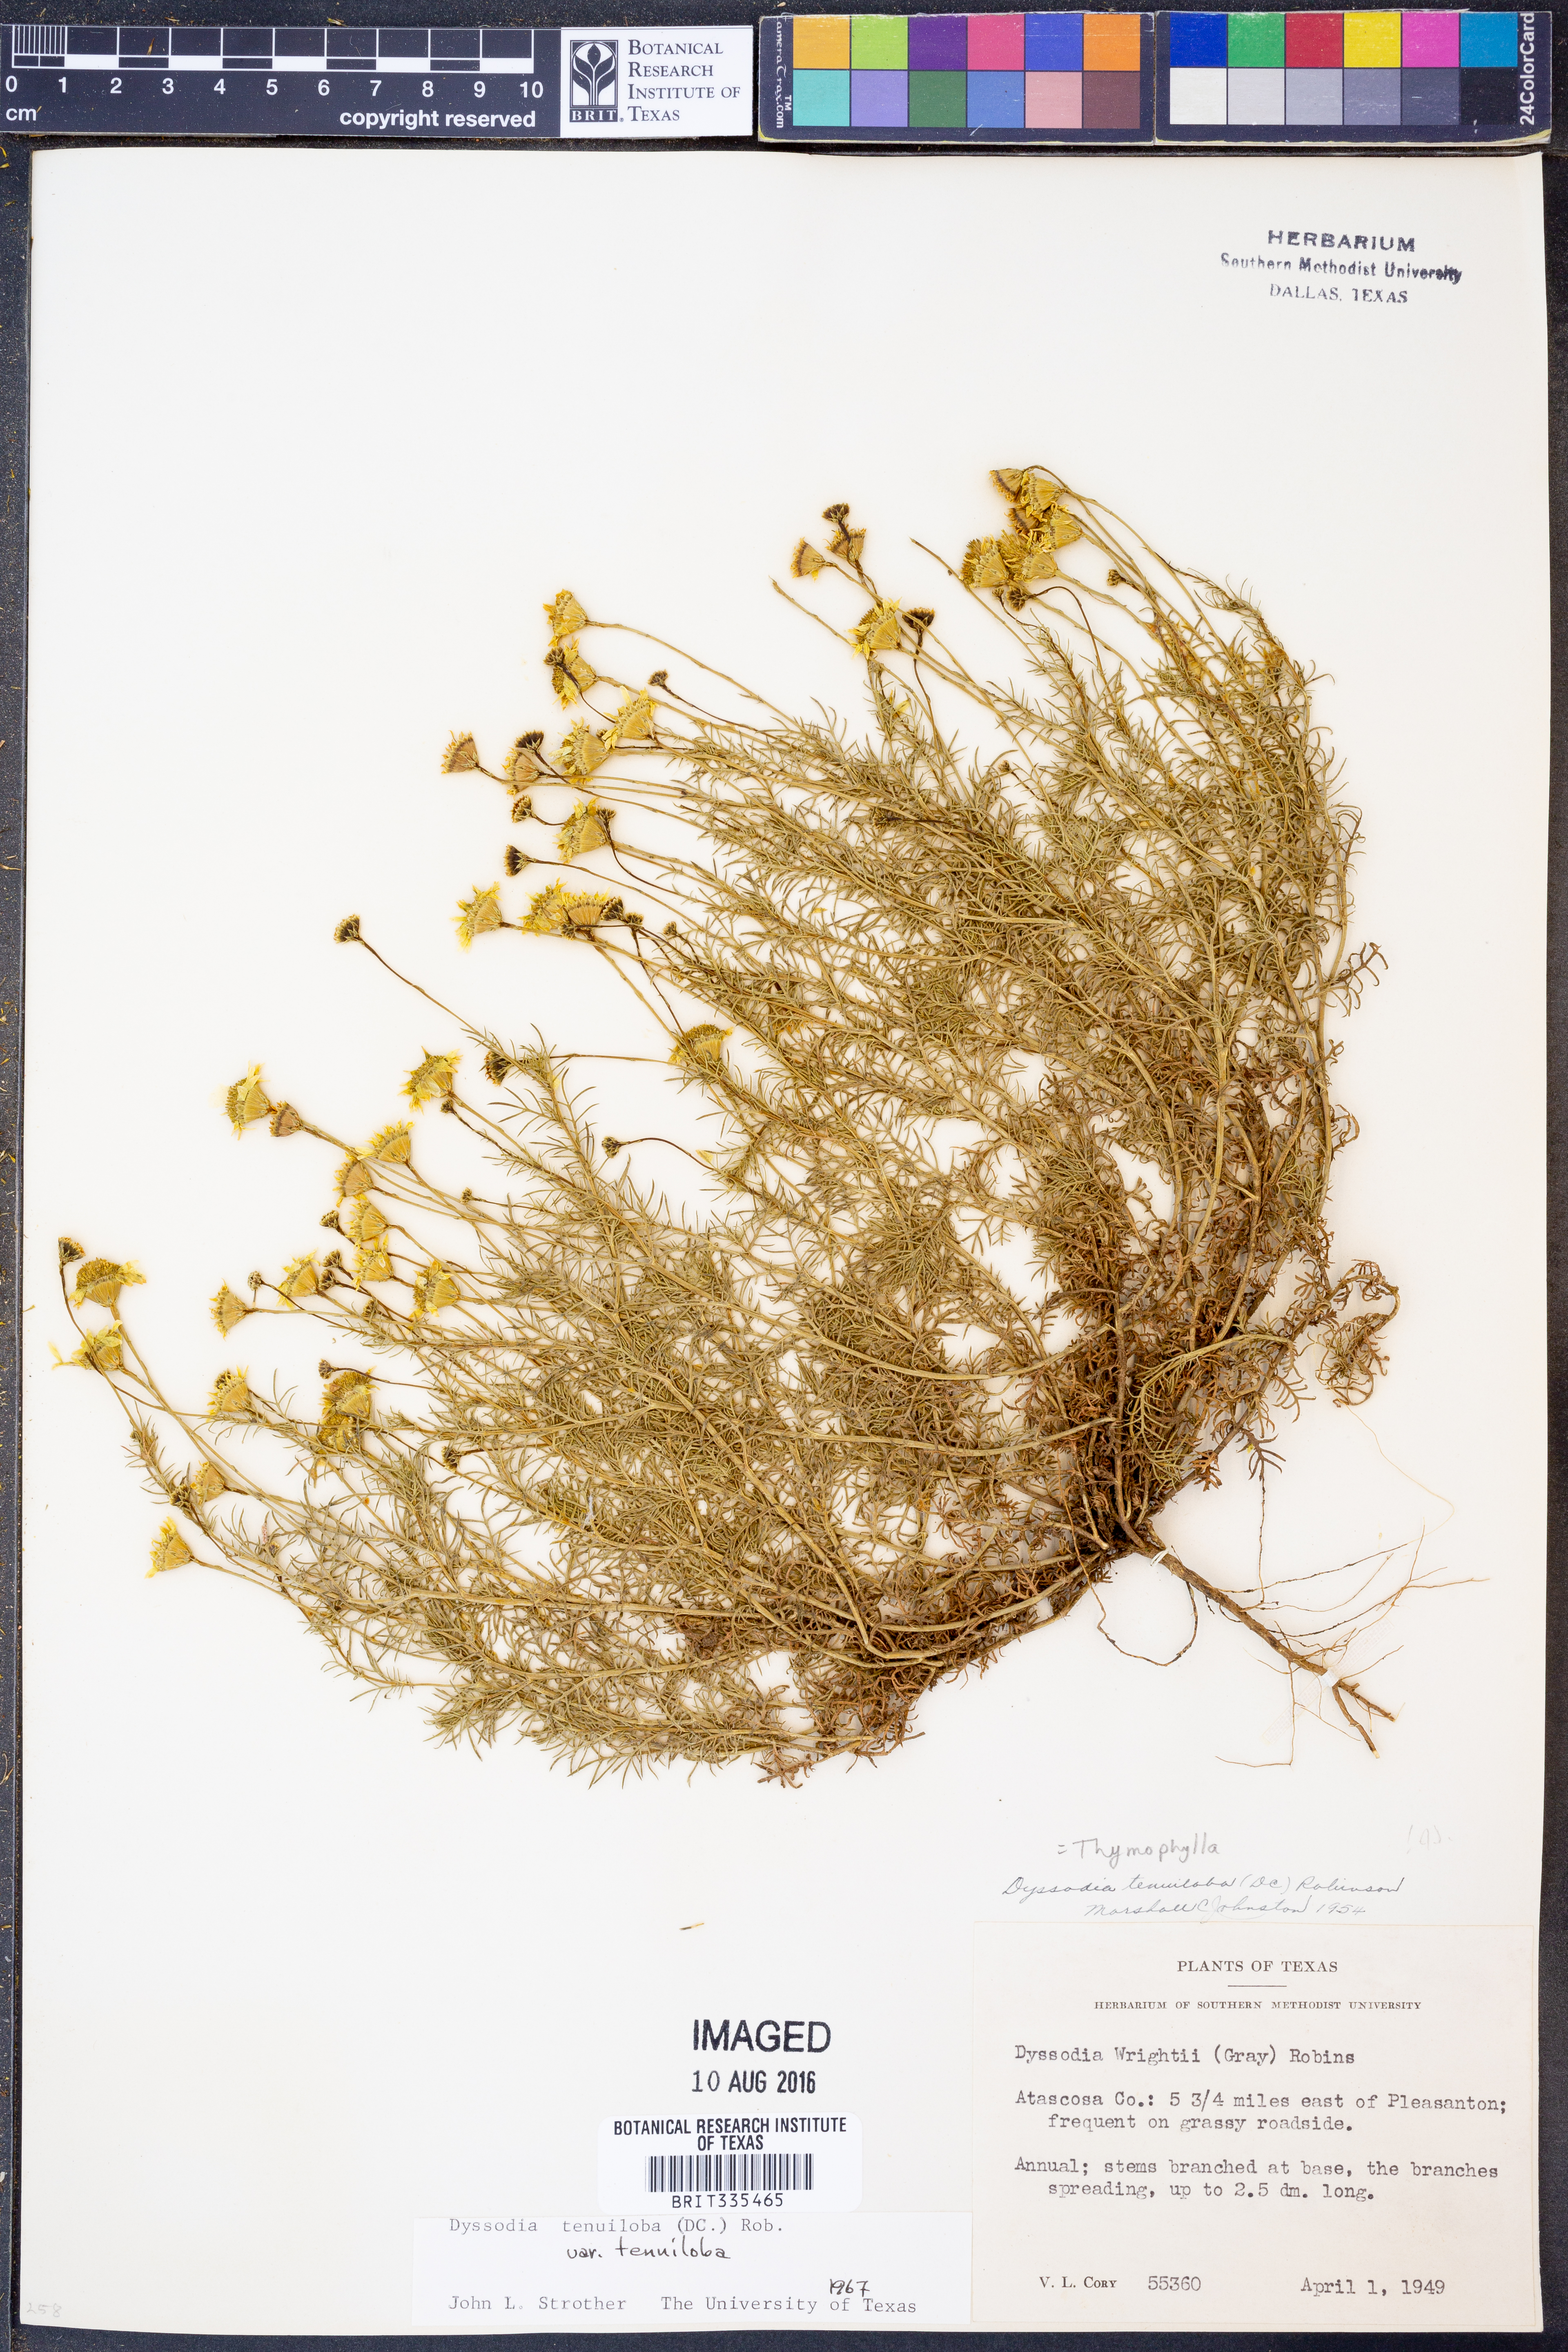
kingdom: Plantae
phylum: Tracheophyta
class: Magnoliopsida
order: Asterales
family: Asteraceae
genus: Thymophylla
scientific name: Thymophylla tenuiloba
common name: Dahlberg's daisy
